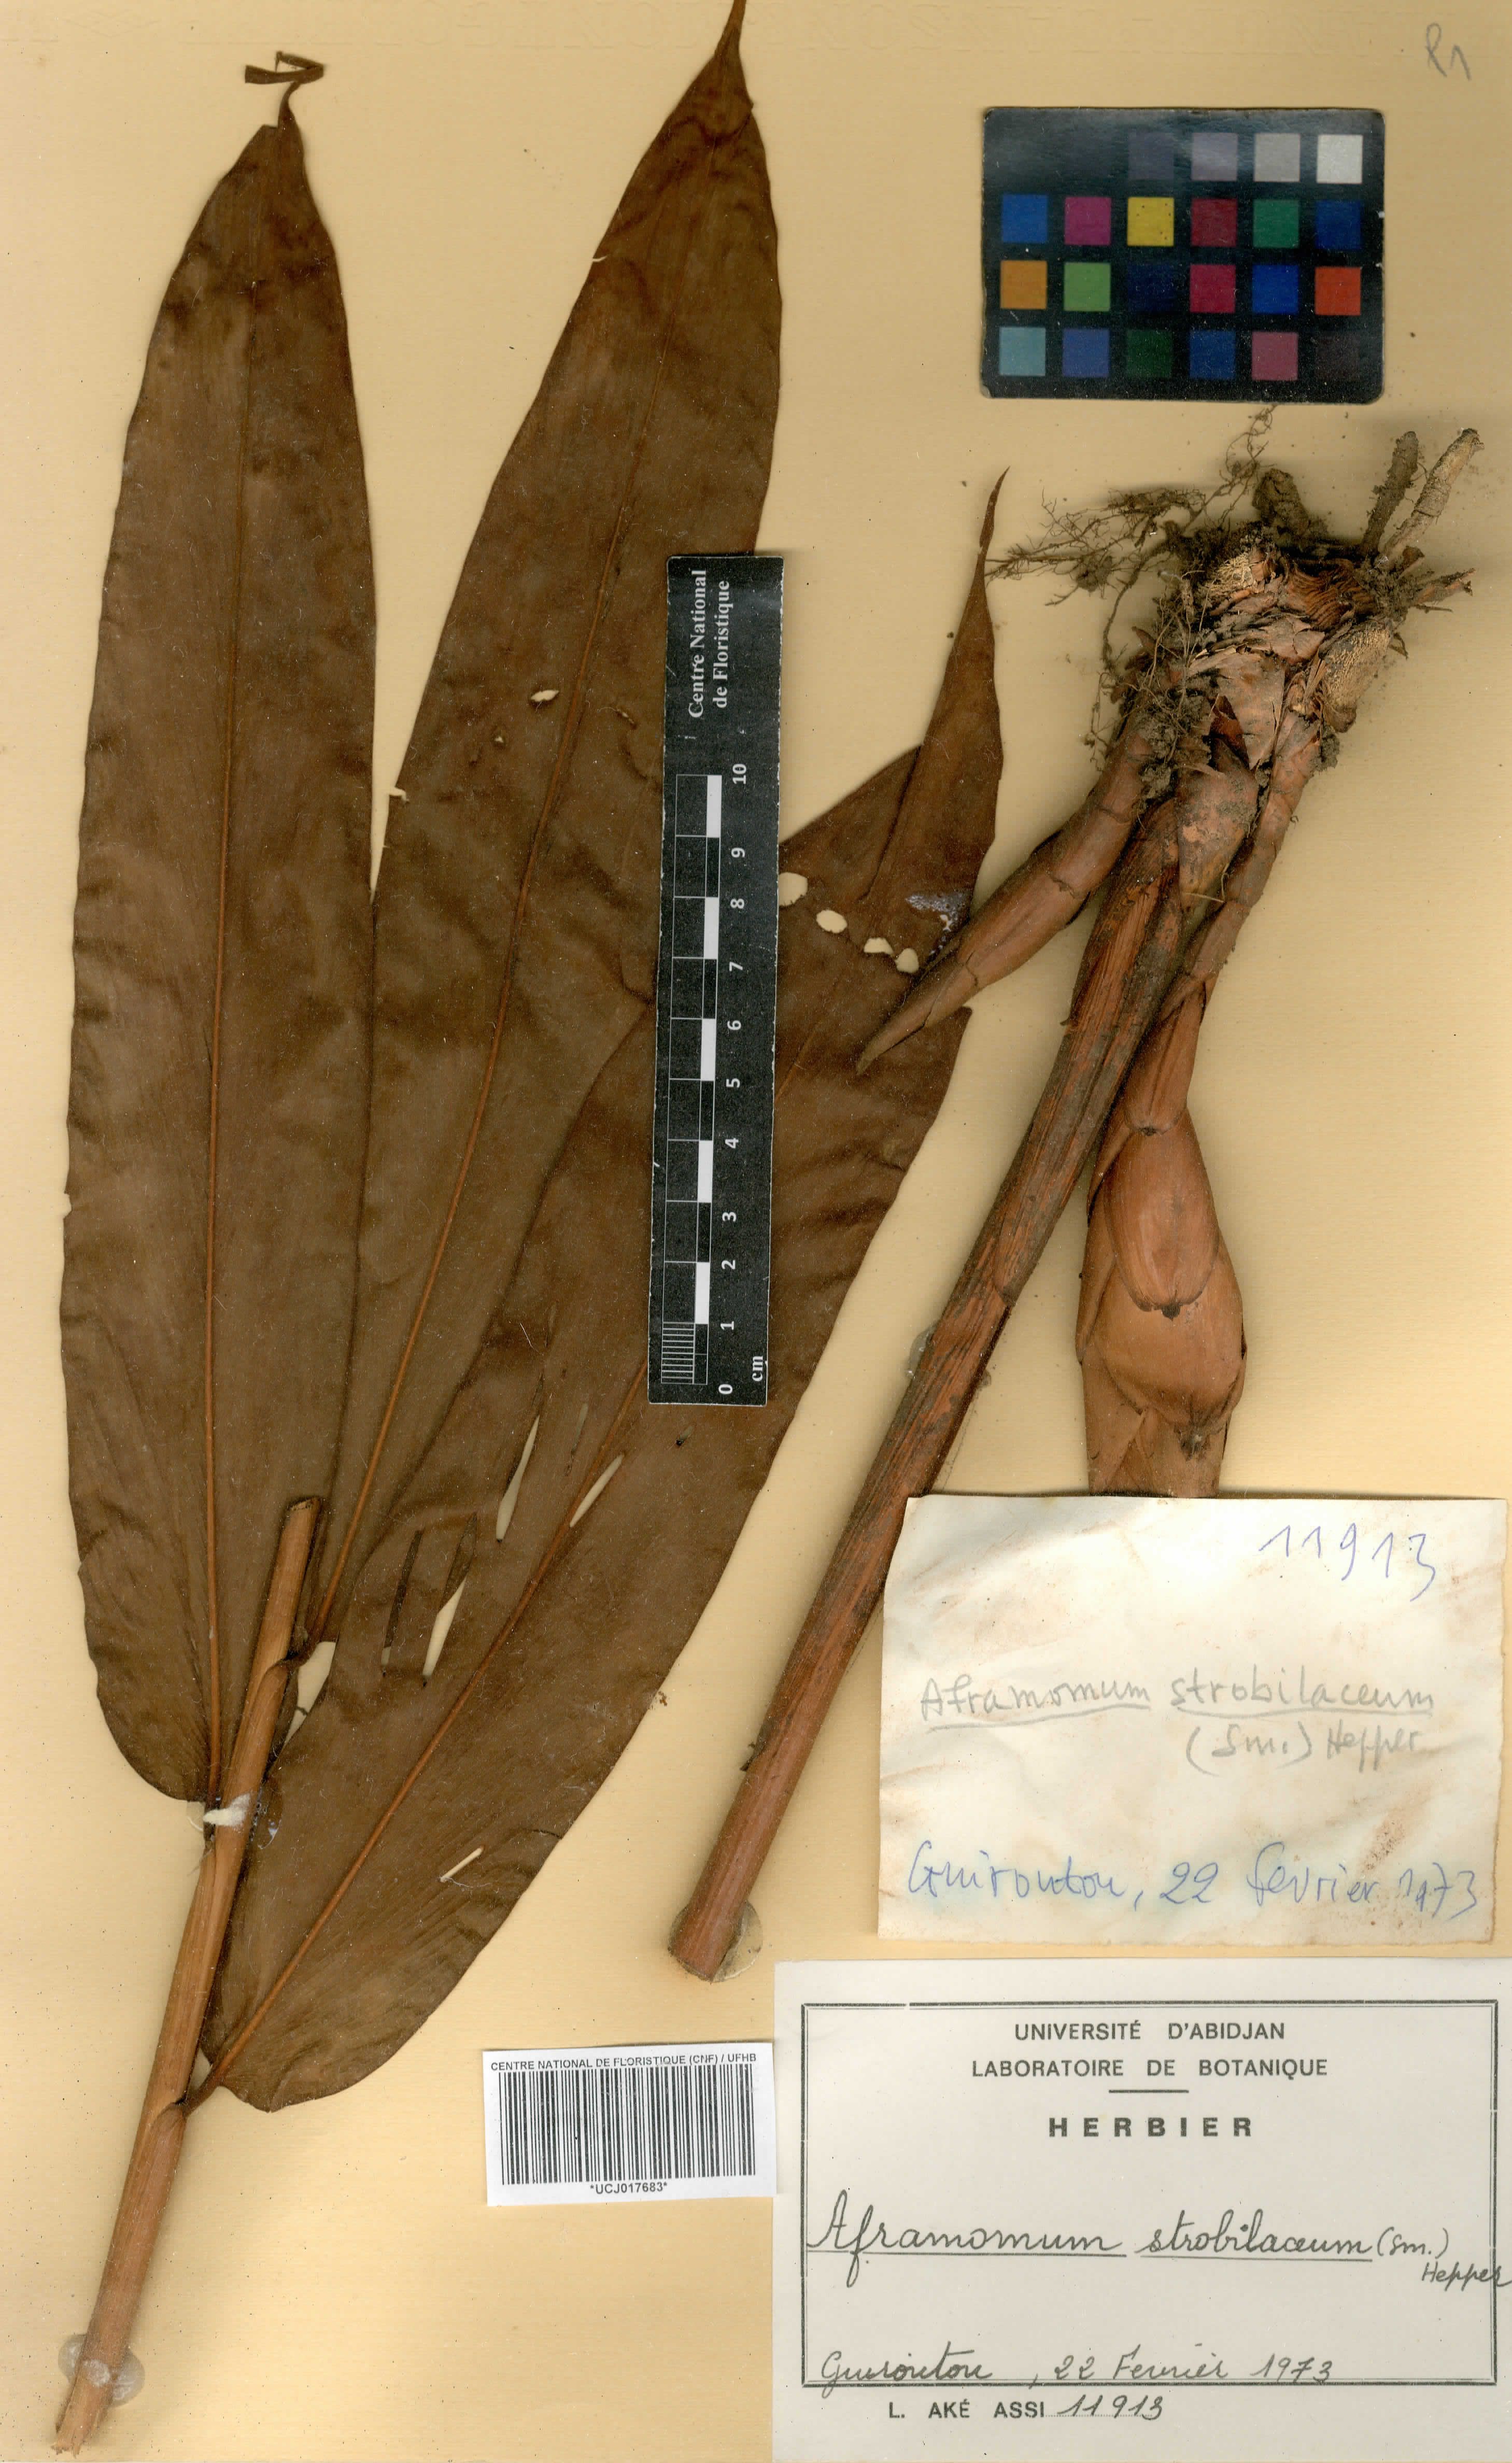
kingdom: Plantae
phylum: Tracheophyta
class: Liliopsida
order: Zingiberales
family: Zingiberaceae
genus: Aframomum
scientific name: Aframomum strobilaceum
